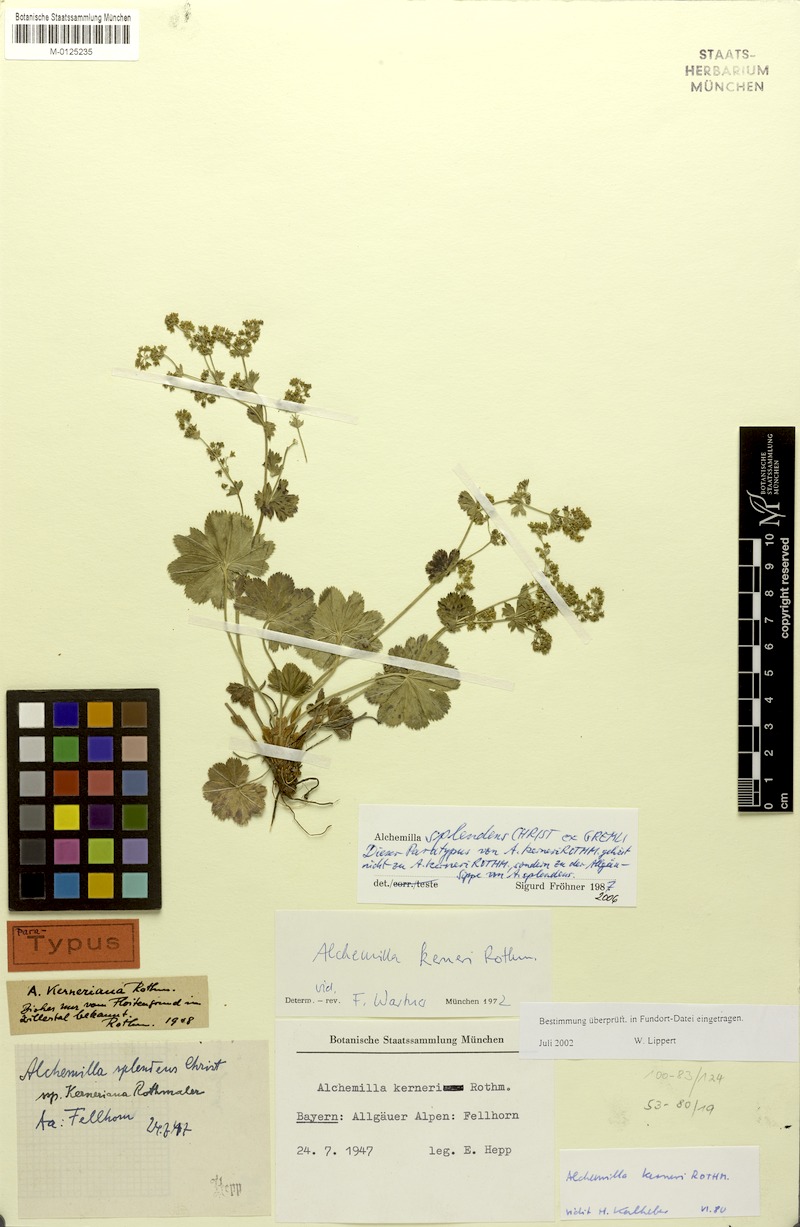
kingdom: Plantae
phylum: Tracheophyta
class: Magnoliopsida
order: Rosales
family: Rosaceae
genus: Alchemilla
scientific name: Alchemilla splendens
